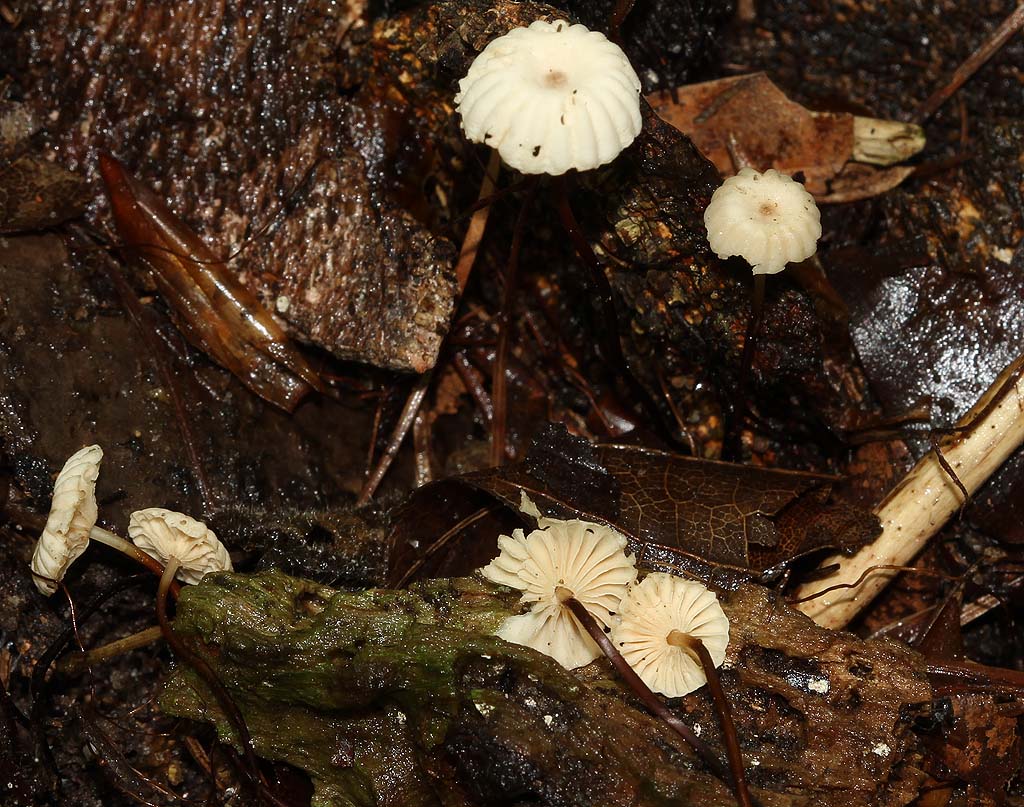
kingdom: Fungi
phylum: Basidiomycota
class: Agaricomycetes
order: Agaricales
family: Marasmiaceae
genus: Marasmius
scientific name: Marasmius rotula
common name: hjul-bruskhat
